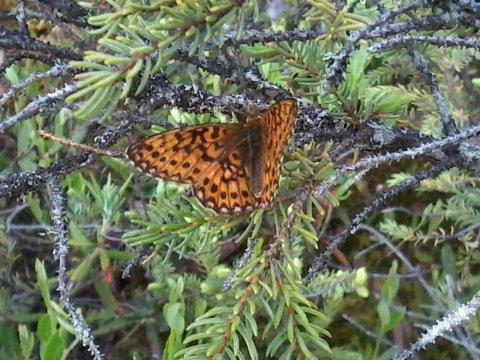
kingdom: Animalia
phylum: Arthropoda
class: Insecta
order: Lepidoptera
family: Nymphalidae
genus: Boloria
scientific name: Boloria eunomia
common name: Bog Fritillary
